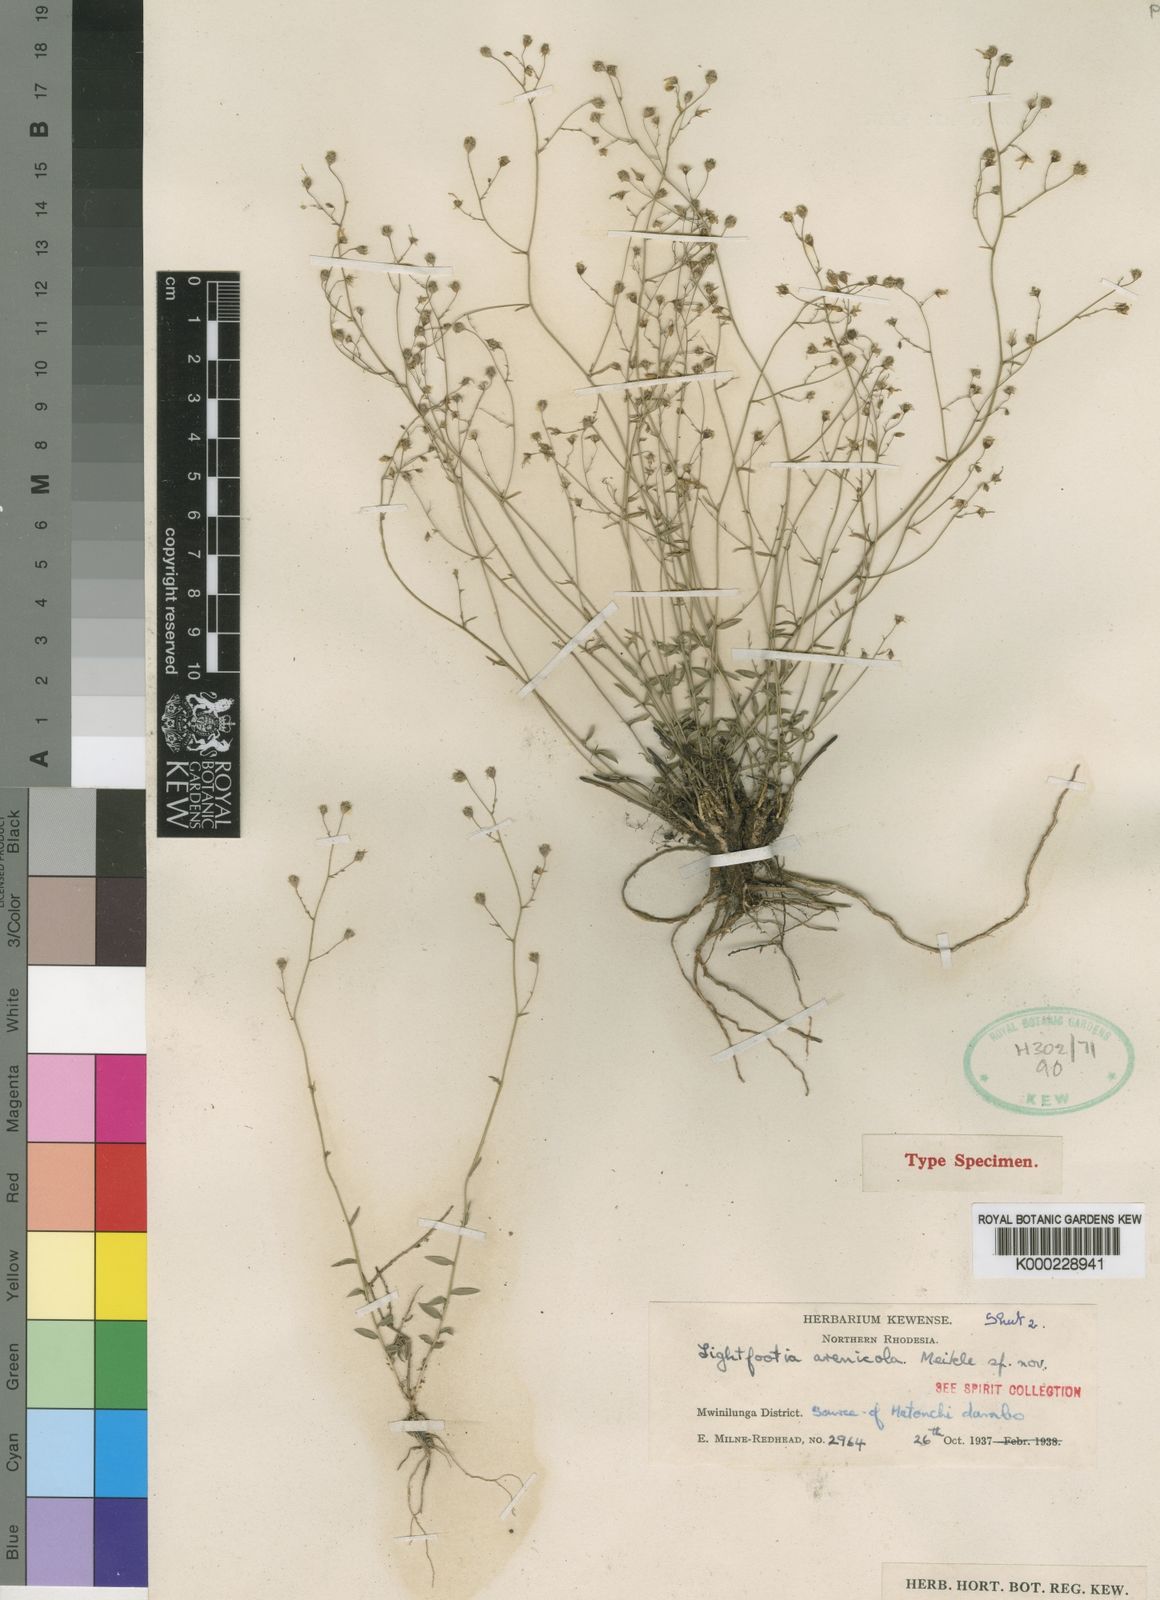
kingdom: Plantae
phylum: Tracheophyta
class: Magnoliopsida
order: Asterales
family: Campanulaceae
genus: Wahlenbergia
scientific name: Wahlenbergia abyssinica
